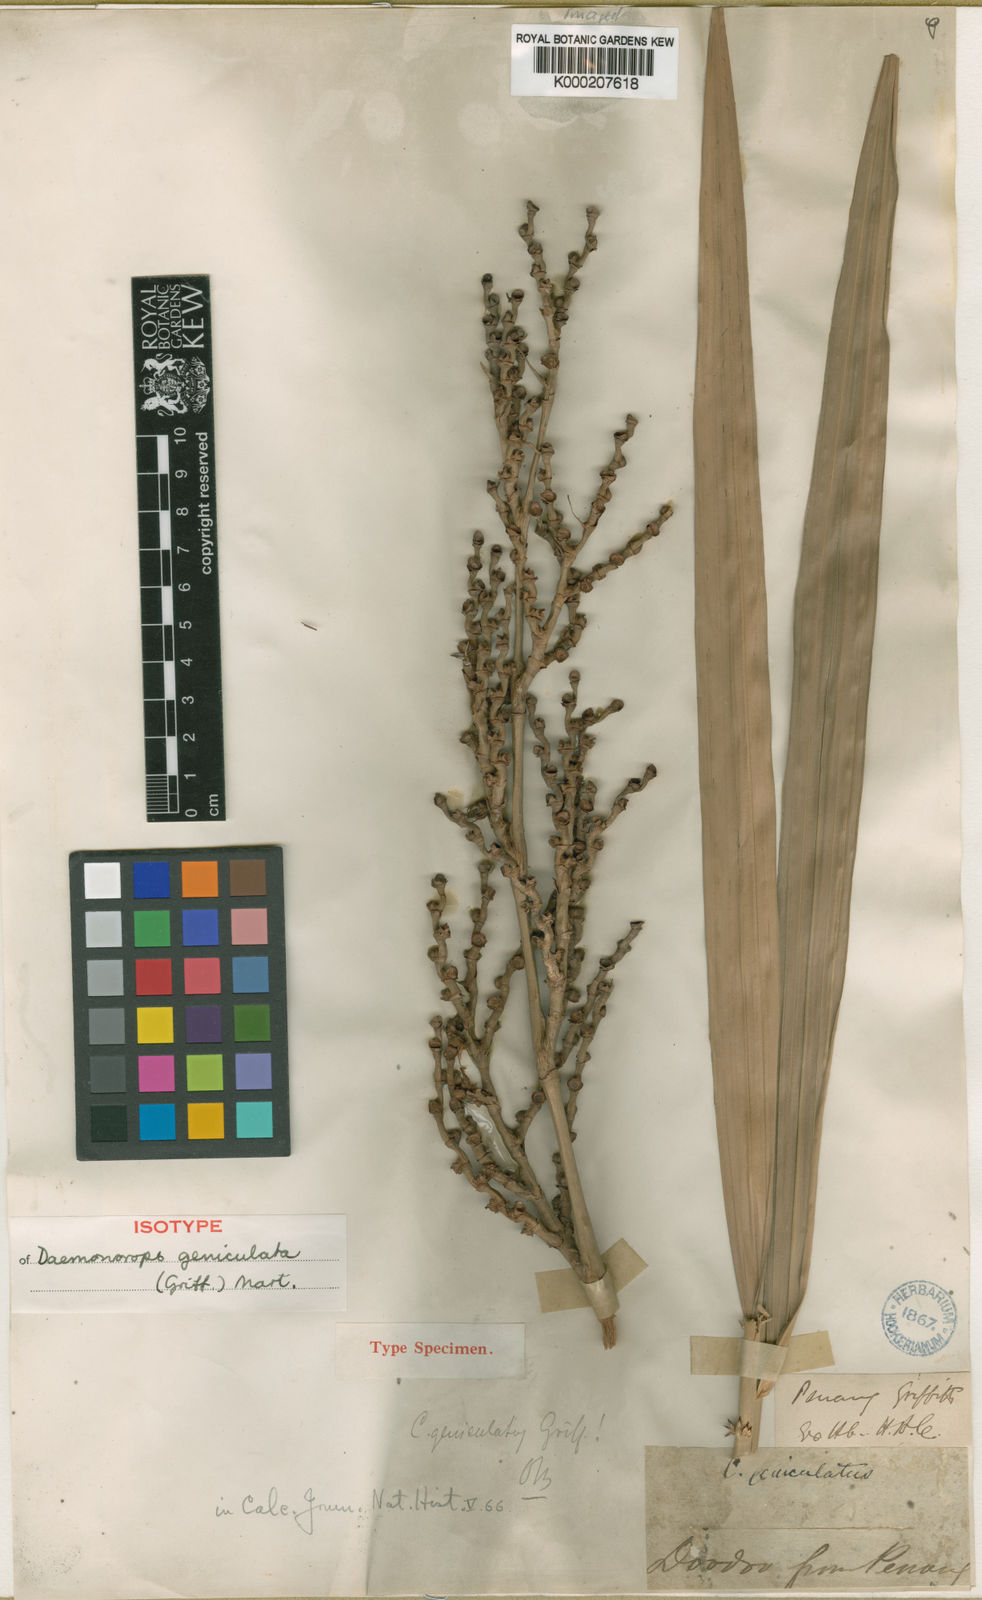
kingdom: Plantae
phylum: Tracheophyta
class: Liliopsida
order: Arecales
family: Arecaceae
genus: Calamus
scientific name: Calamus geniculatus
